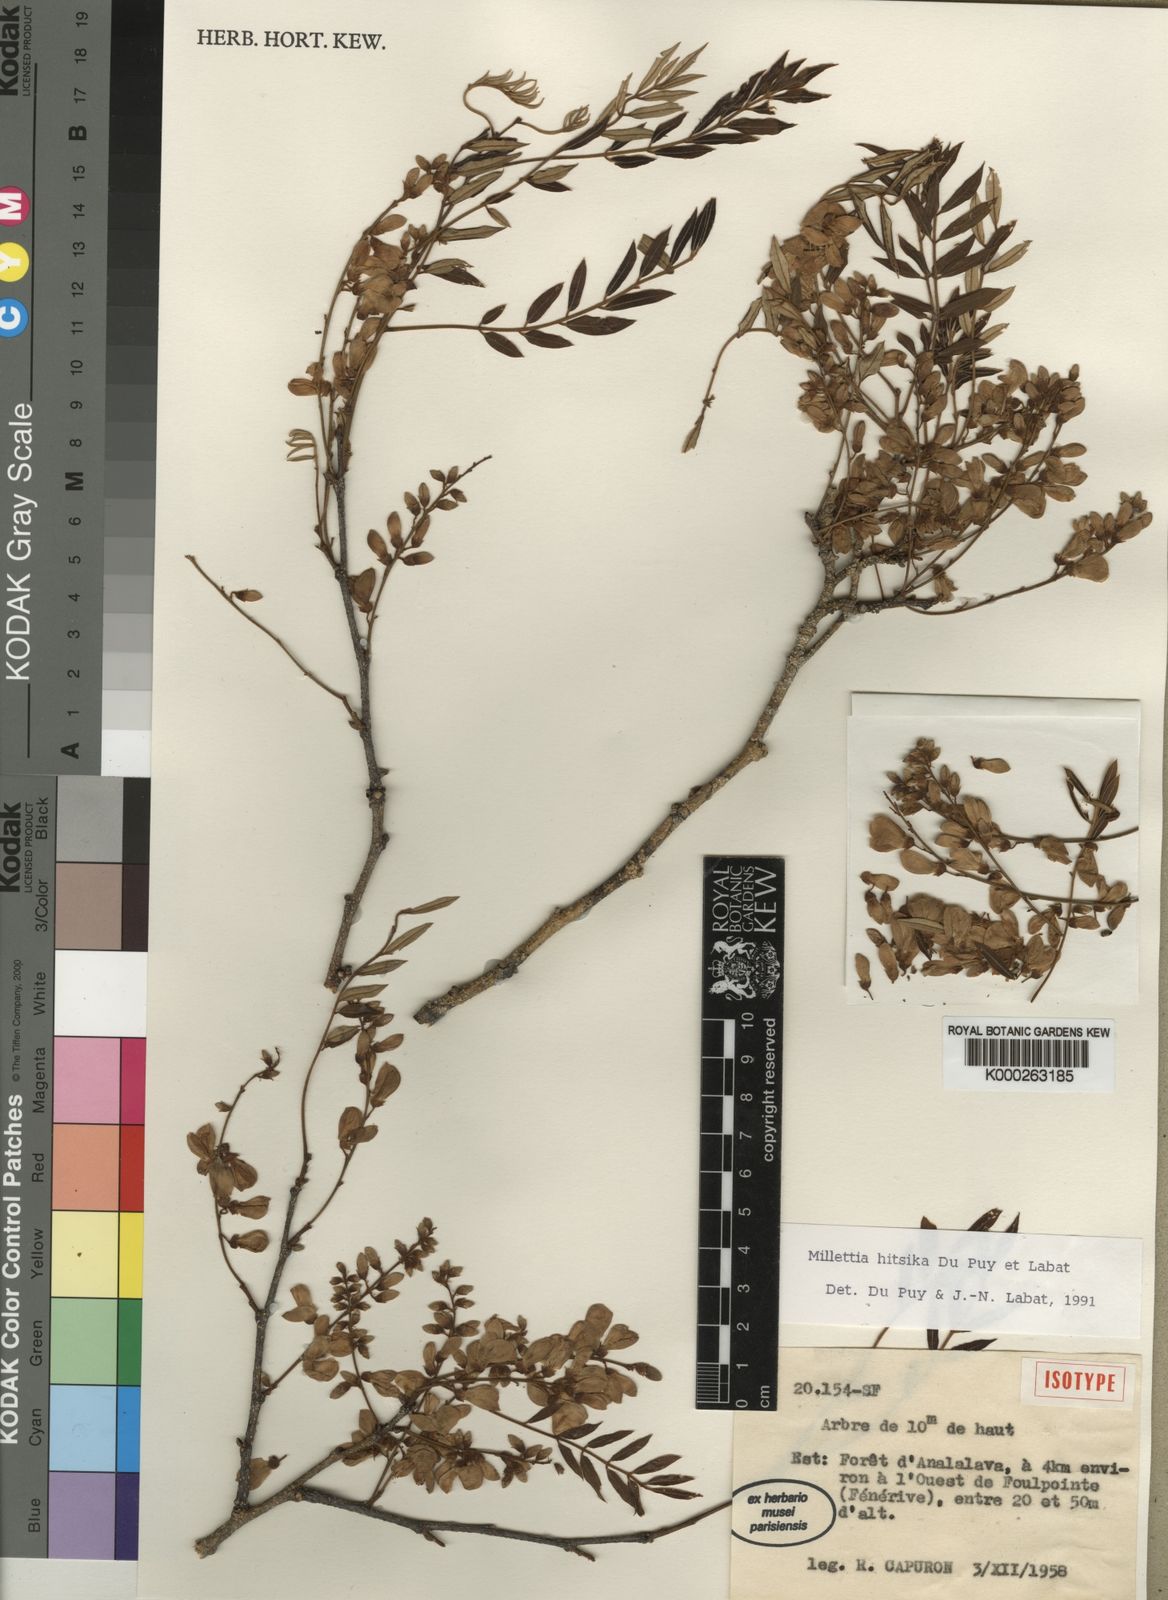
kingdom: Plantae
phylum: Tracheophyta
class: Magnoliopsida
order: Fabales
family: Fabaceae
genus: Millettia
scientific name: Millettia hitsika
